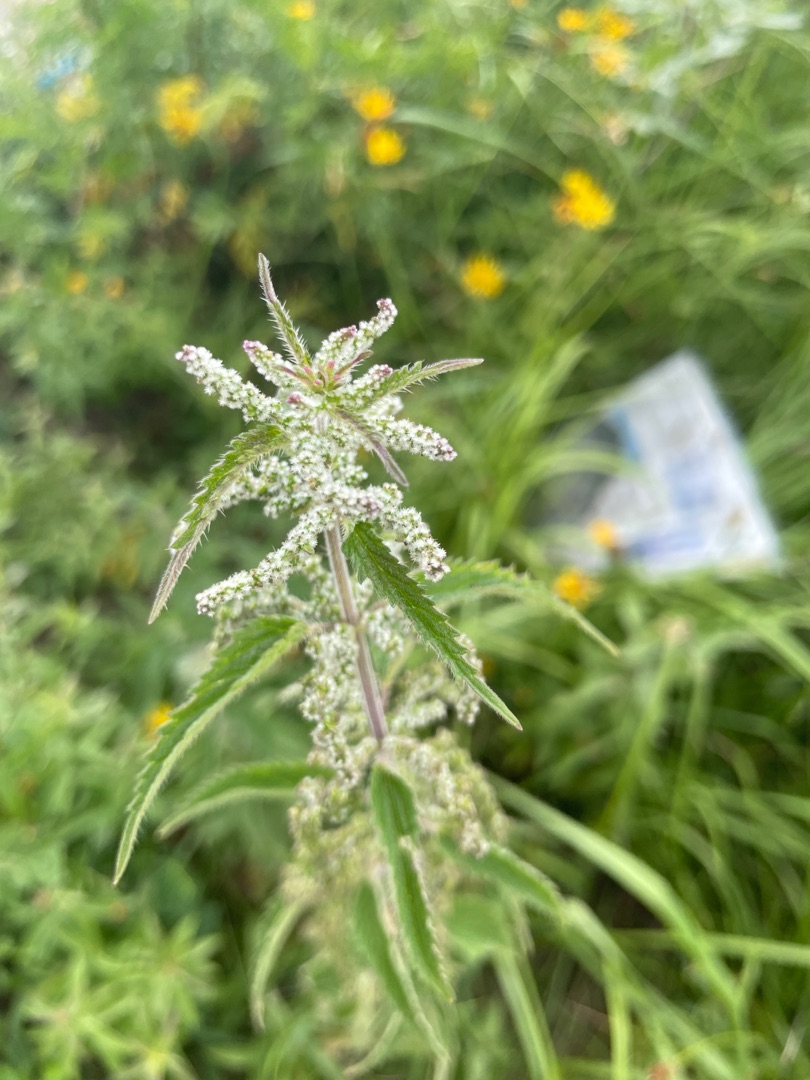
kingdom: Plantae
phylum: Tracheophyta
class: Magnoliopsida
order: Rosales
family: Urticaceae
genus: Urtica
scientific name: Urtica dioica
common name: Stor nælde
